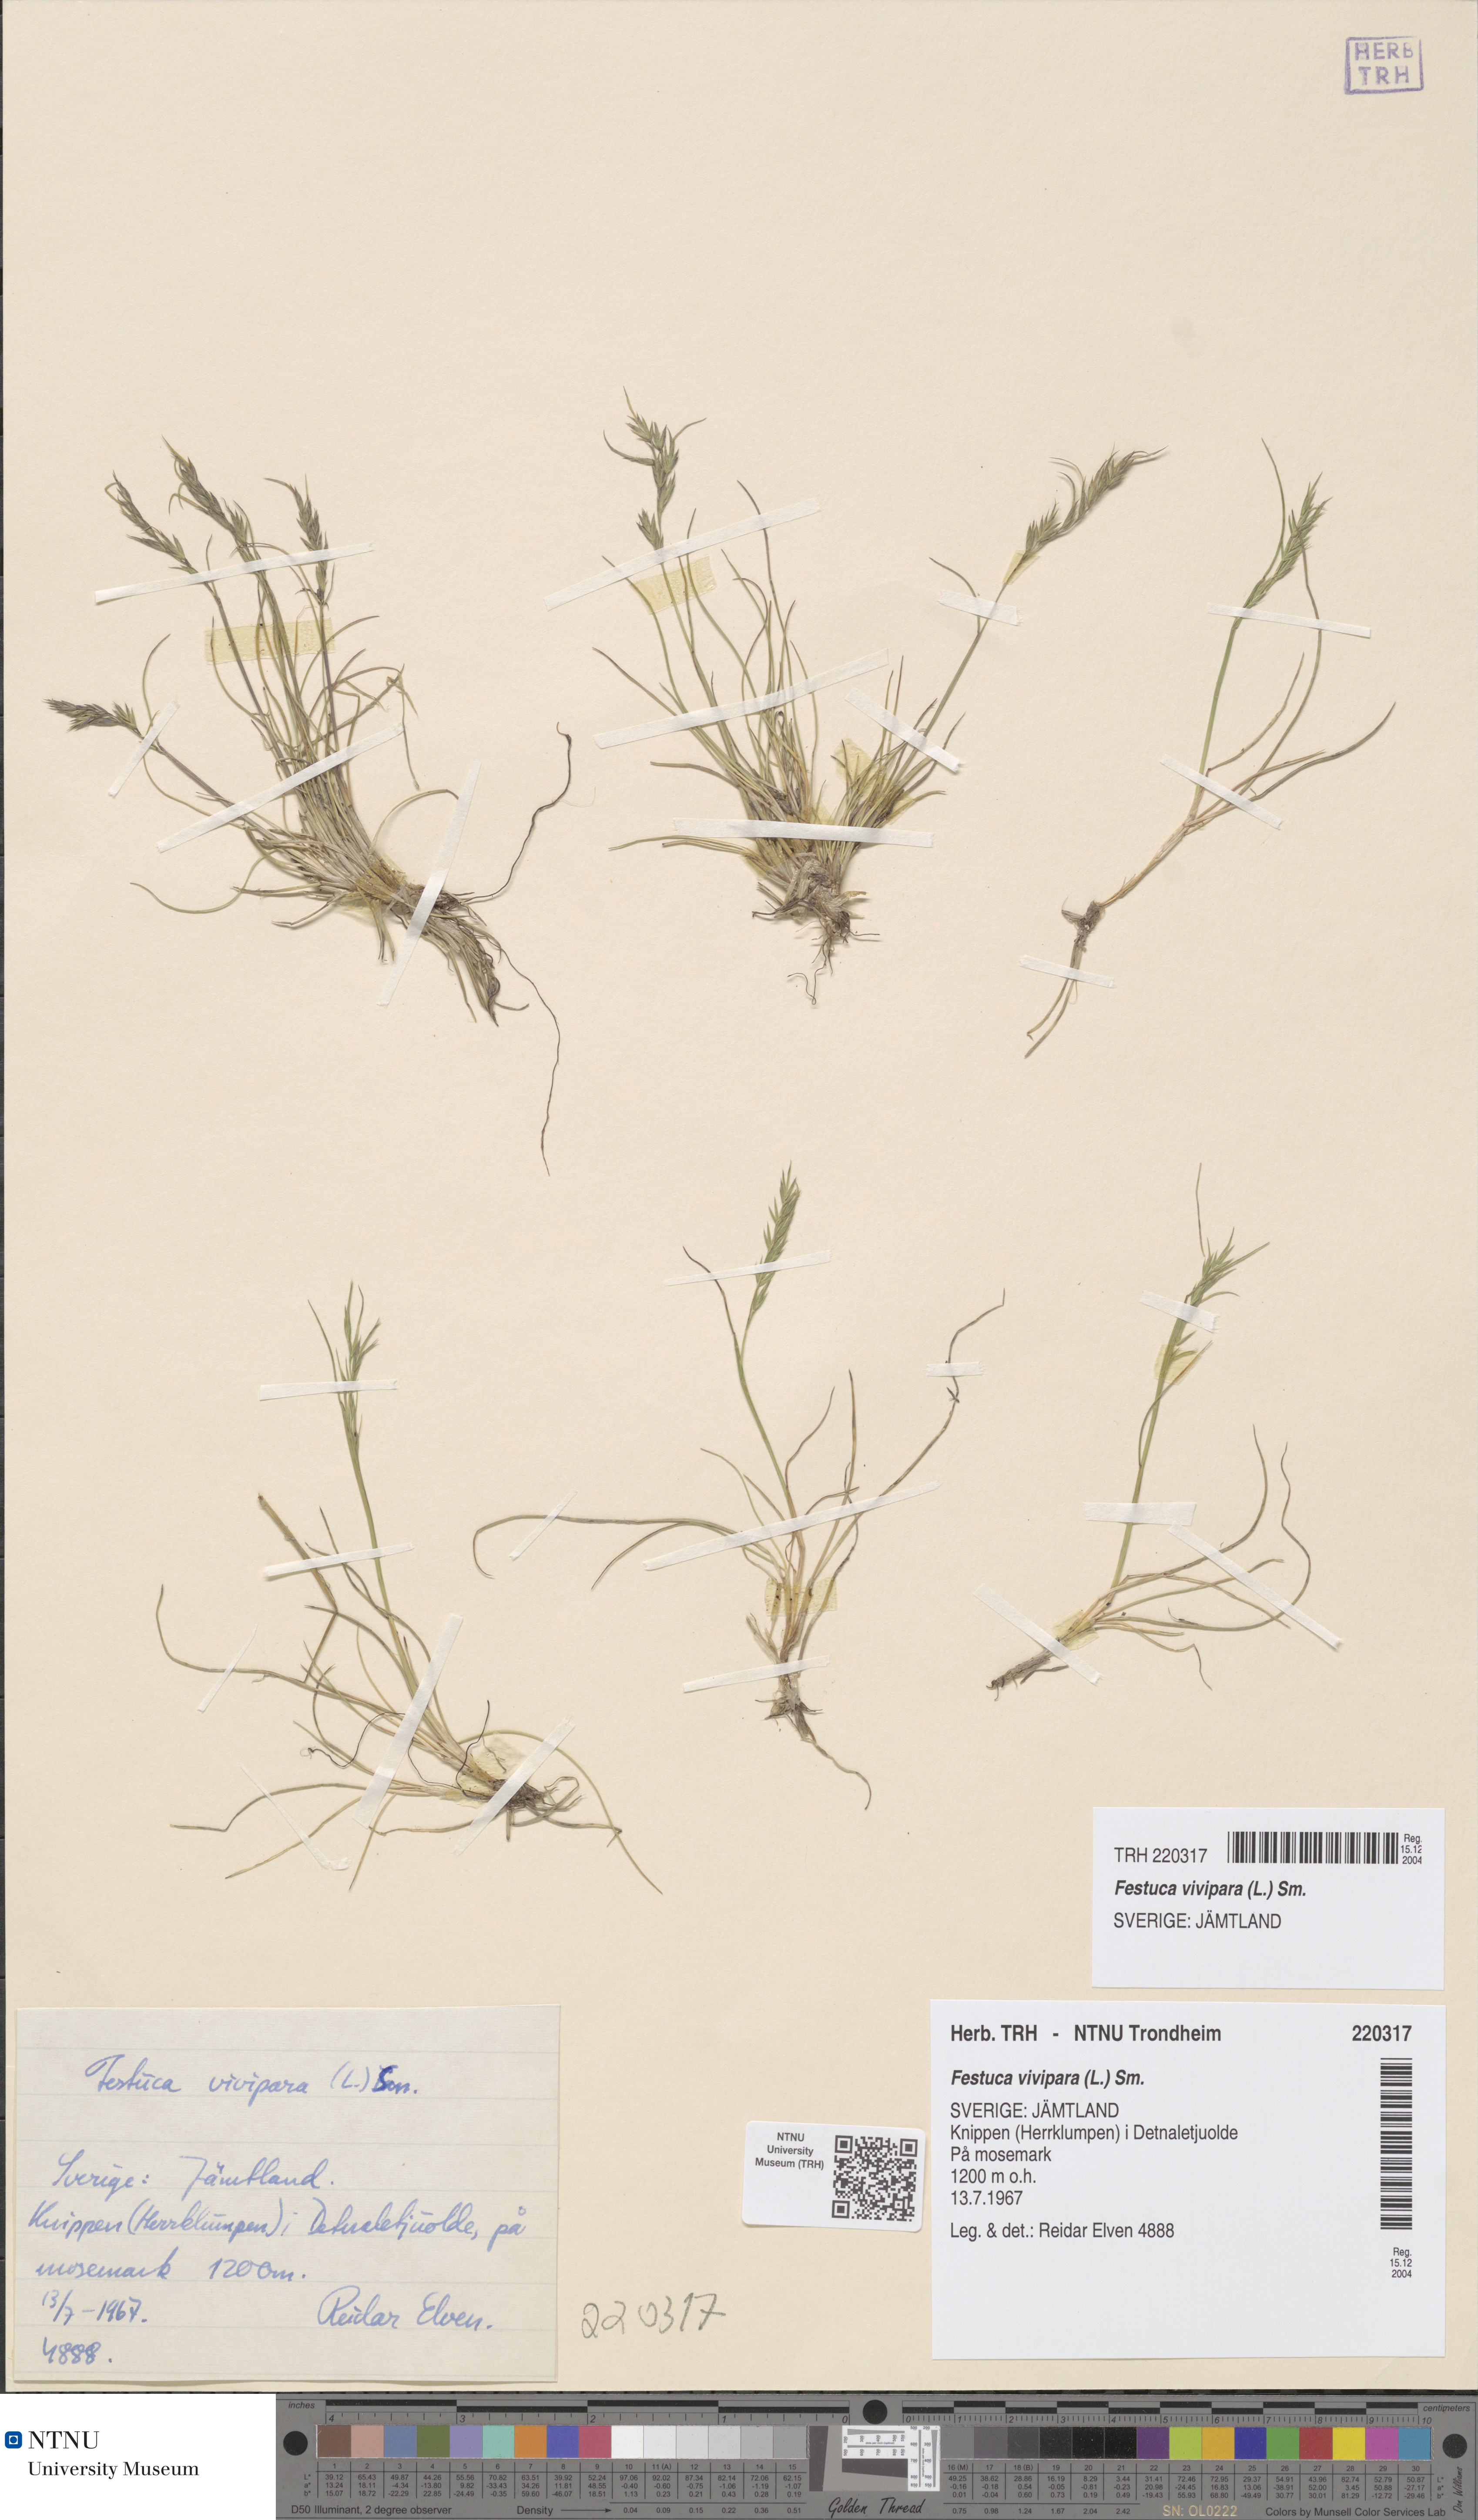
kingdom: Plantae
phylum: Tracheophyta
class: Liliopsida
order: Poales
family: Poaceae
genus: Festuca
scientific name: Festuca vivipara
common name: Viviparous sheep's-fescue
